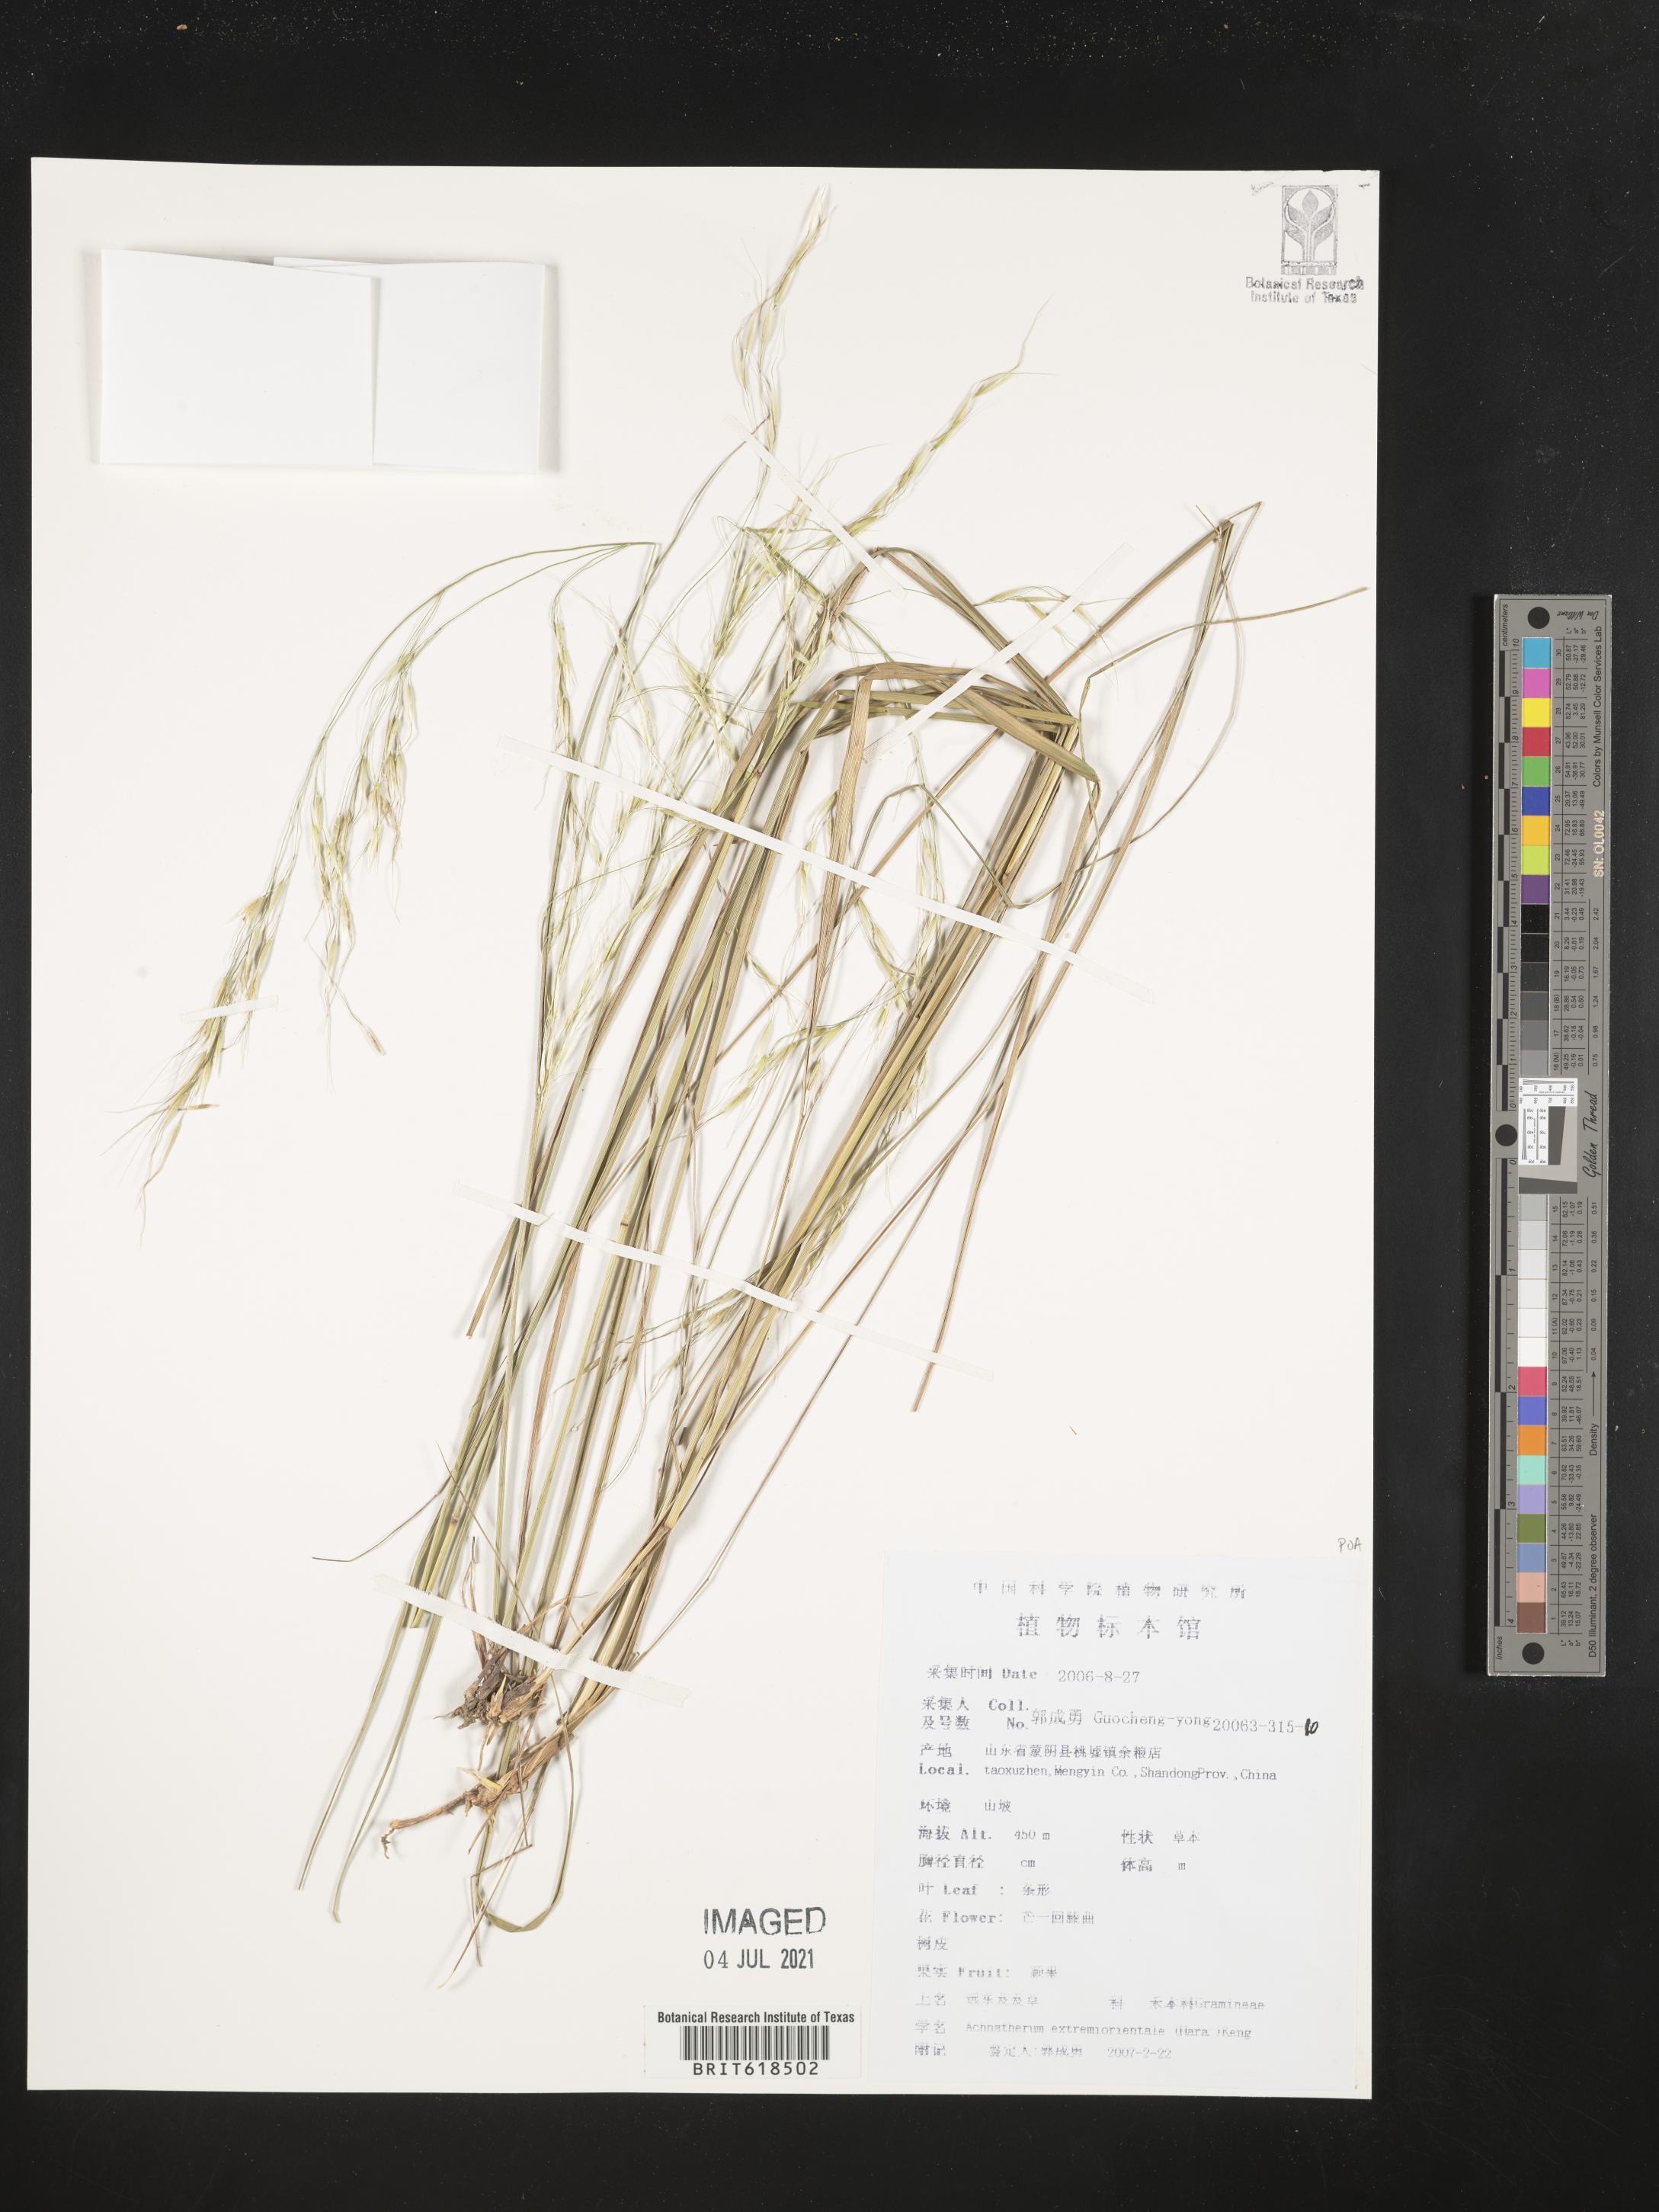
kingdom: Plantae
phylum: Tracheophyta
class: Liliopsida
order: Poales
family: Poaceae
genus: Achnatherum
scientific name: Achnatherum pekinense
